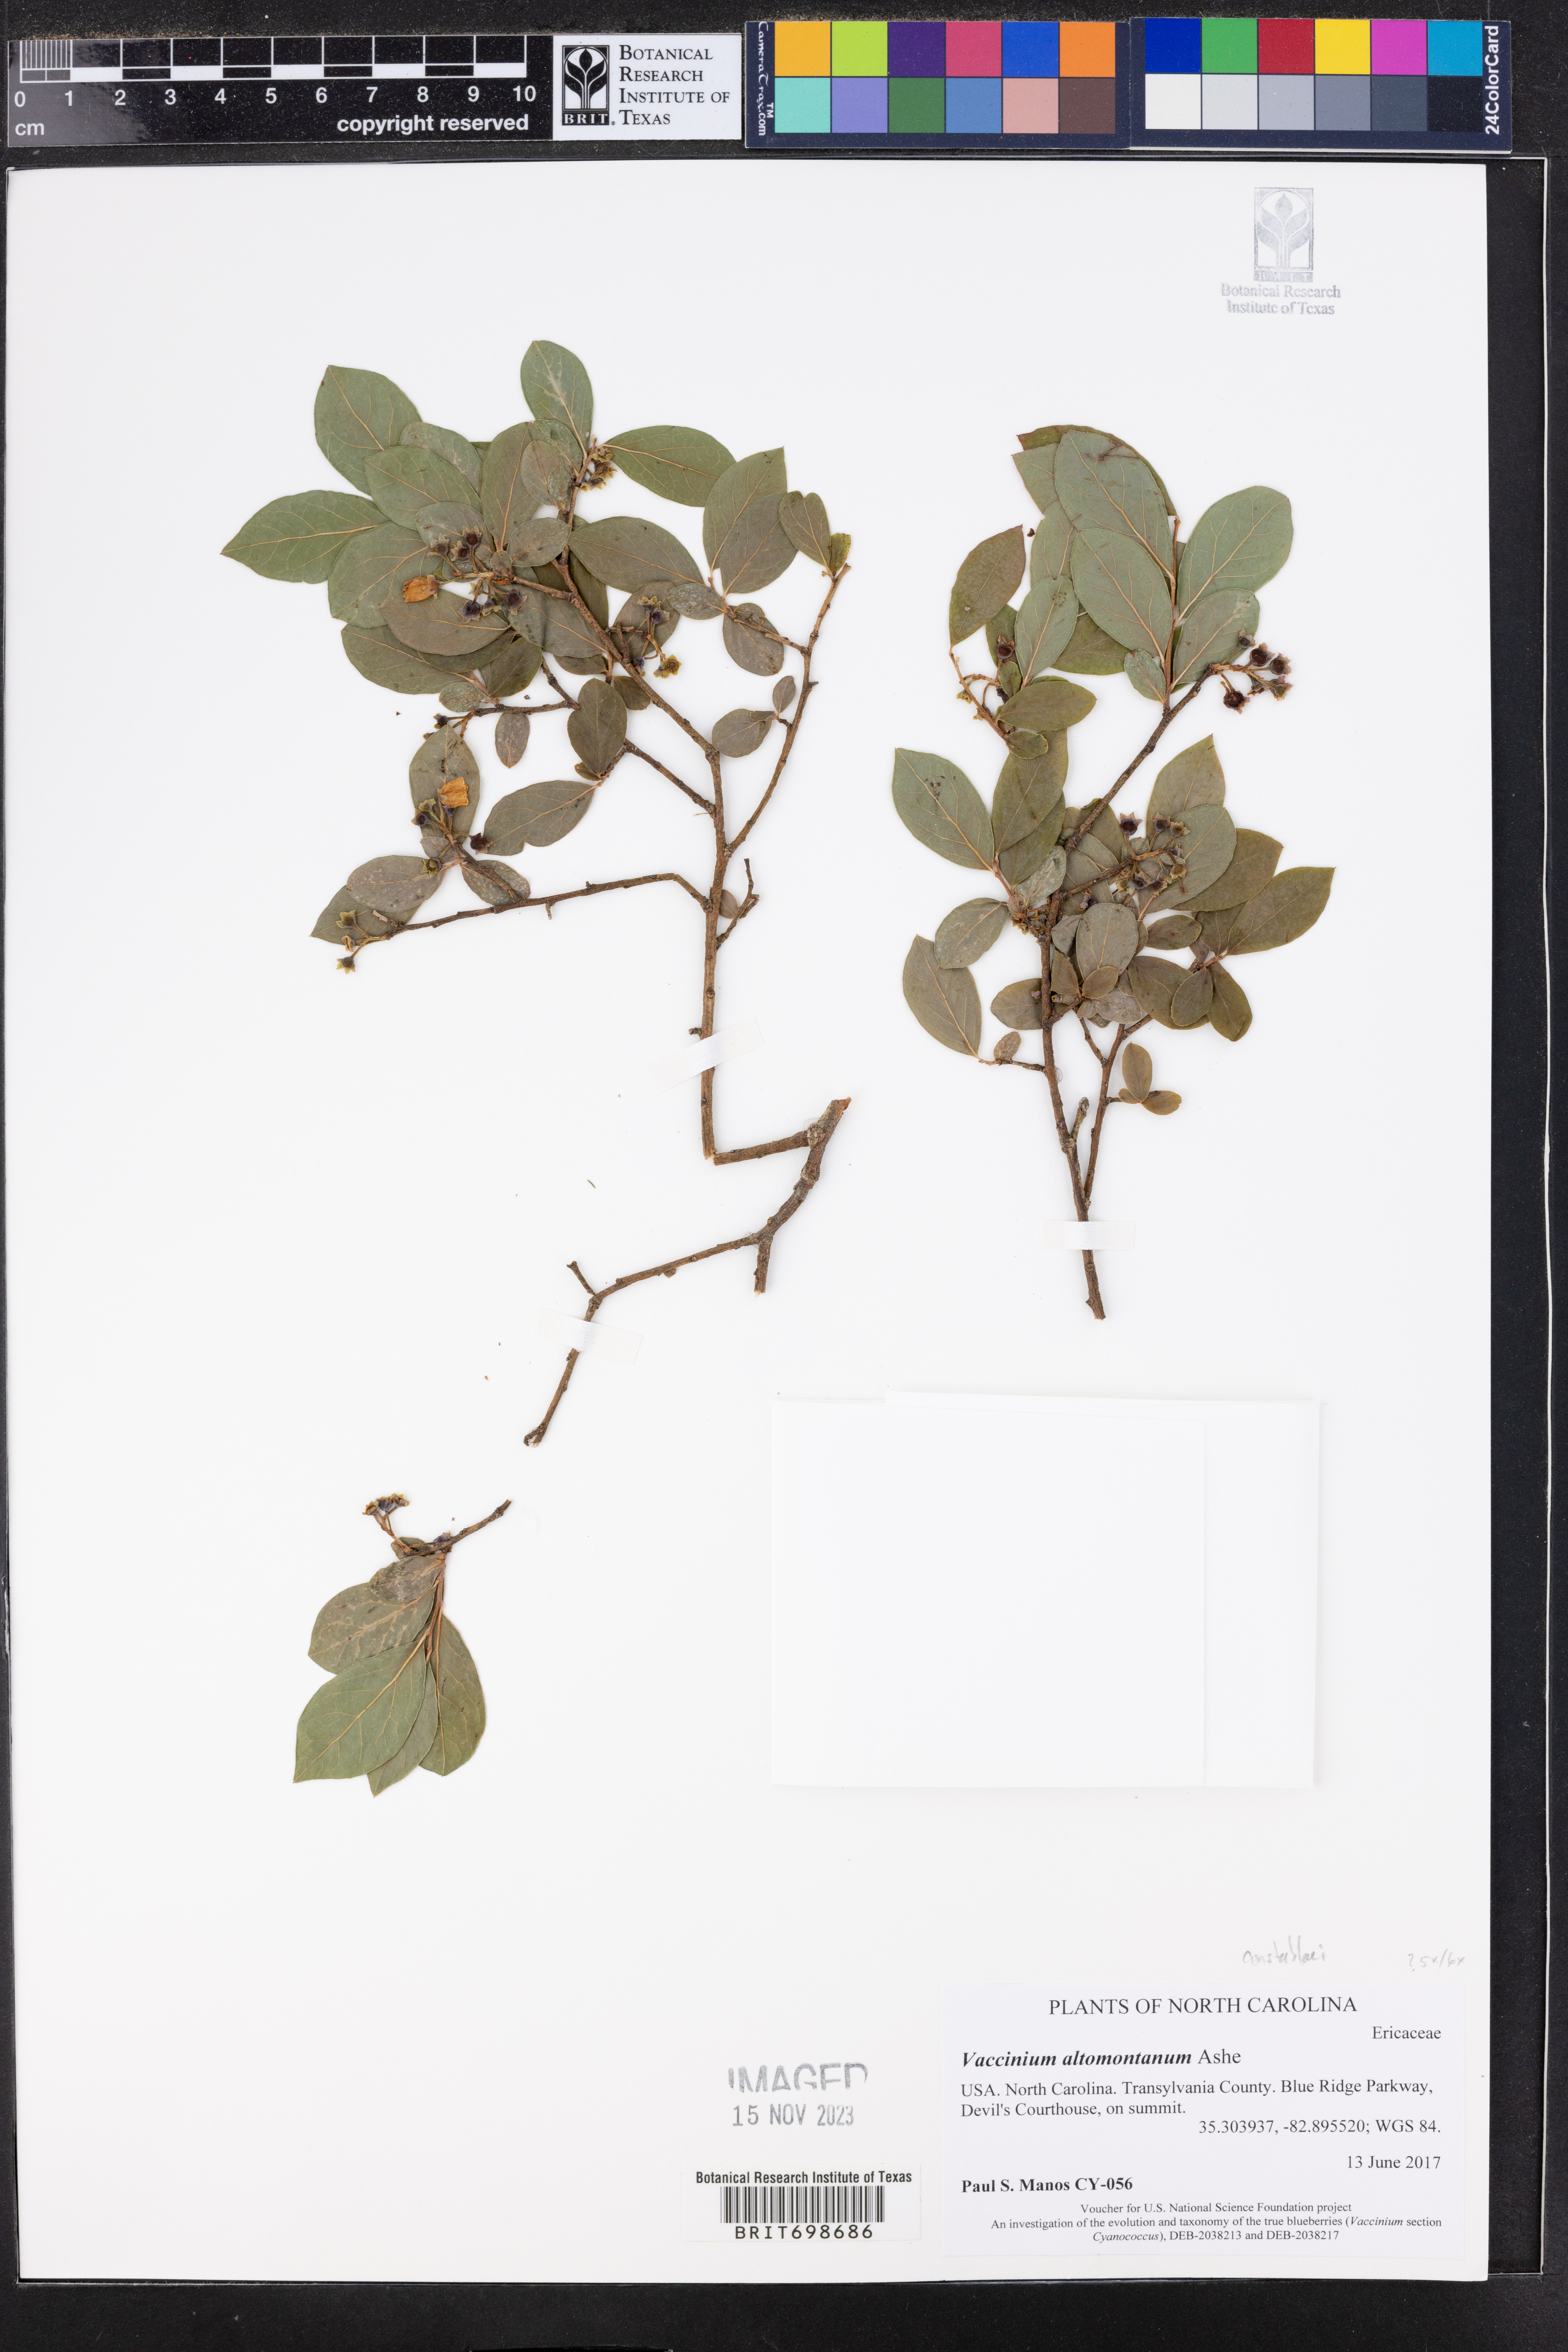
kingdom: Plantae
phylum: Tracheophyta
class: Magnoliopsida
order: Ericales
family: Ericaceae
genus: Vaccinium
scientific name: Vaccinium pallidum
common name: Blue ridge blueberry
